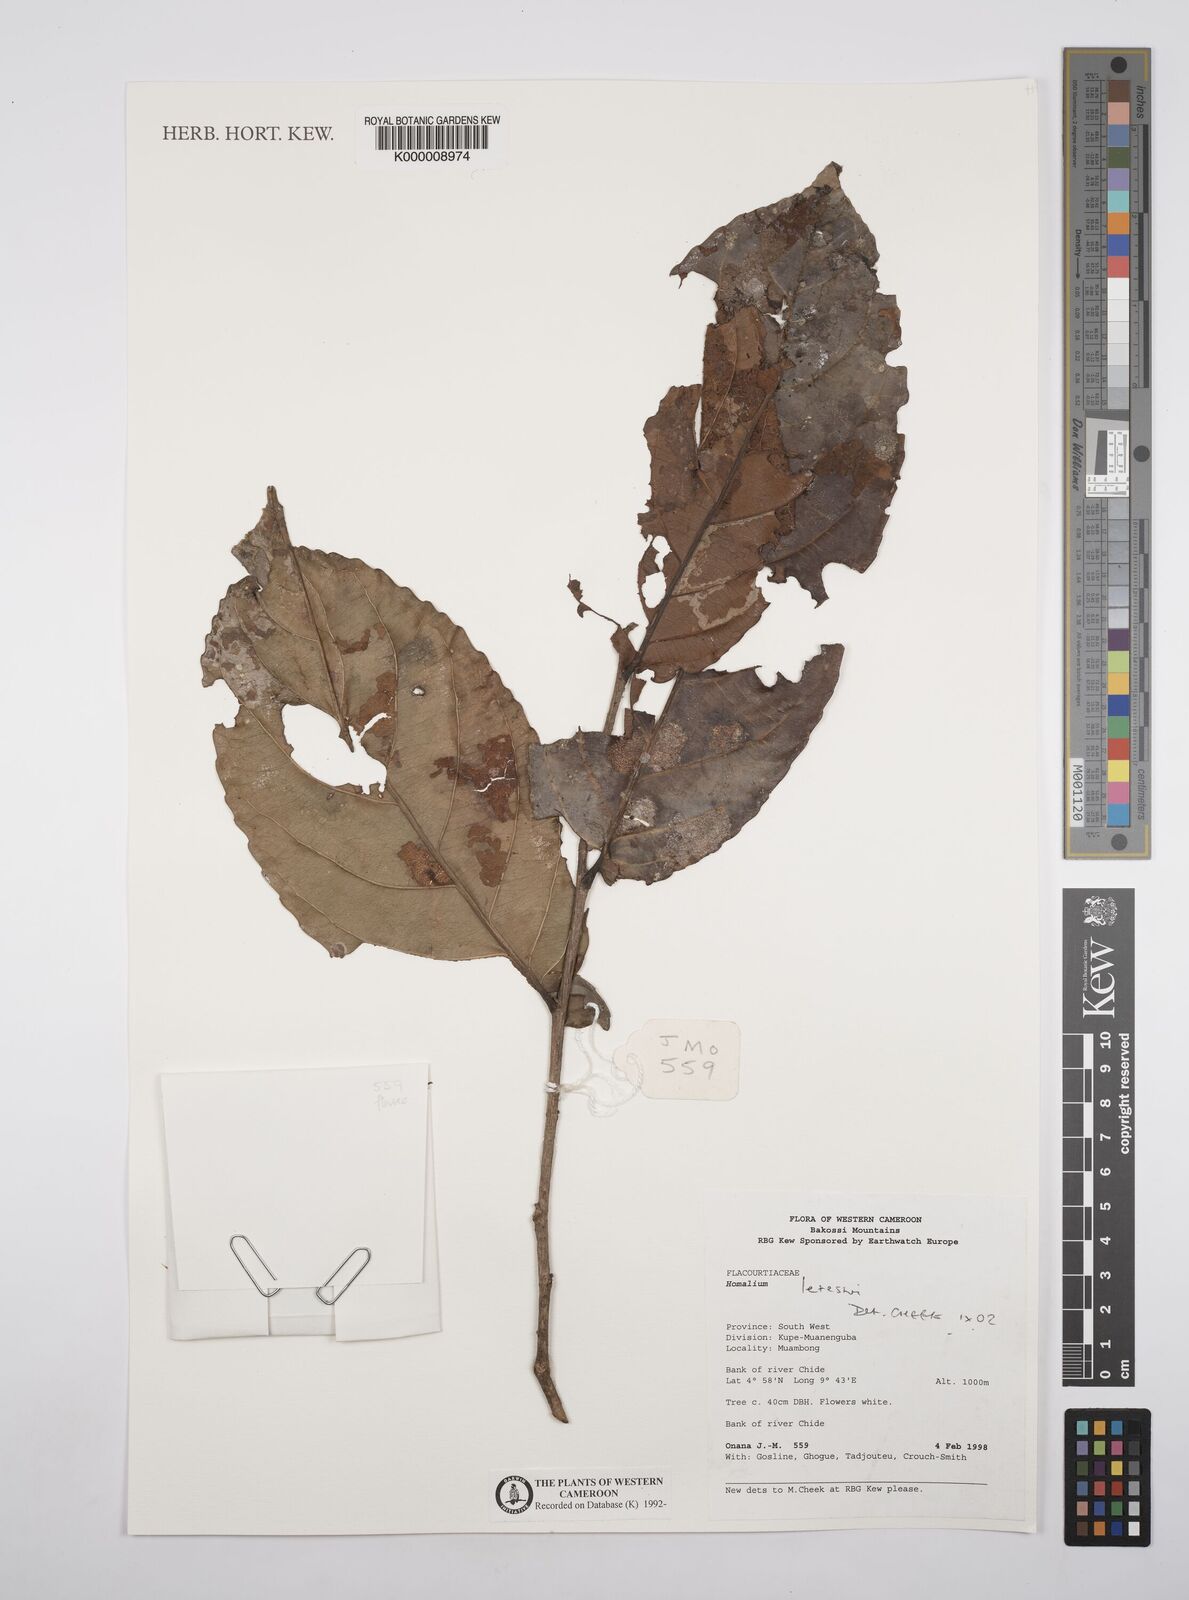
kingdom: Plantae
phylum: Tracheophyta
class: Magnoliopsida
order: Malpighiales
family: Salicaceae
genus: Homalium
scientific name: Homalium letestui
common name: African homalium
